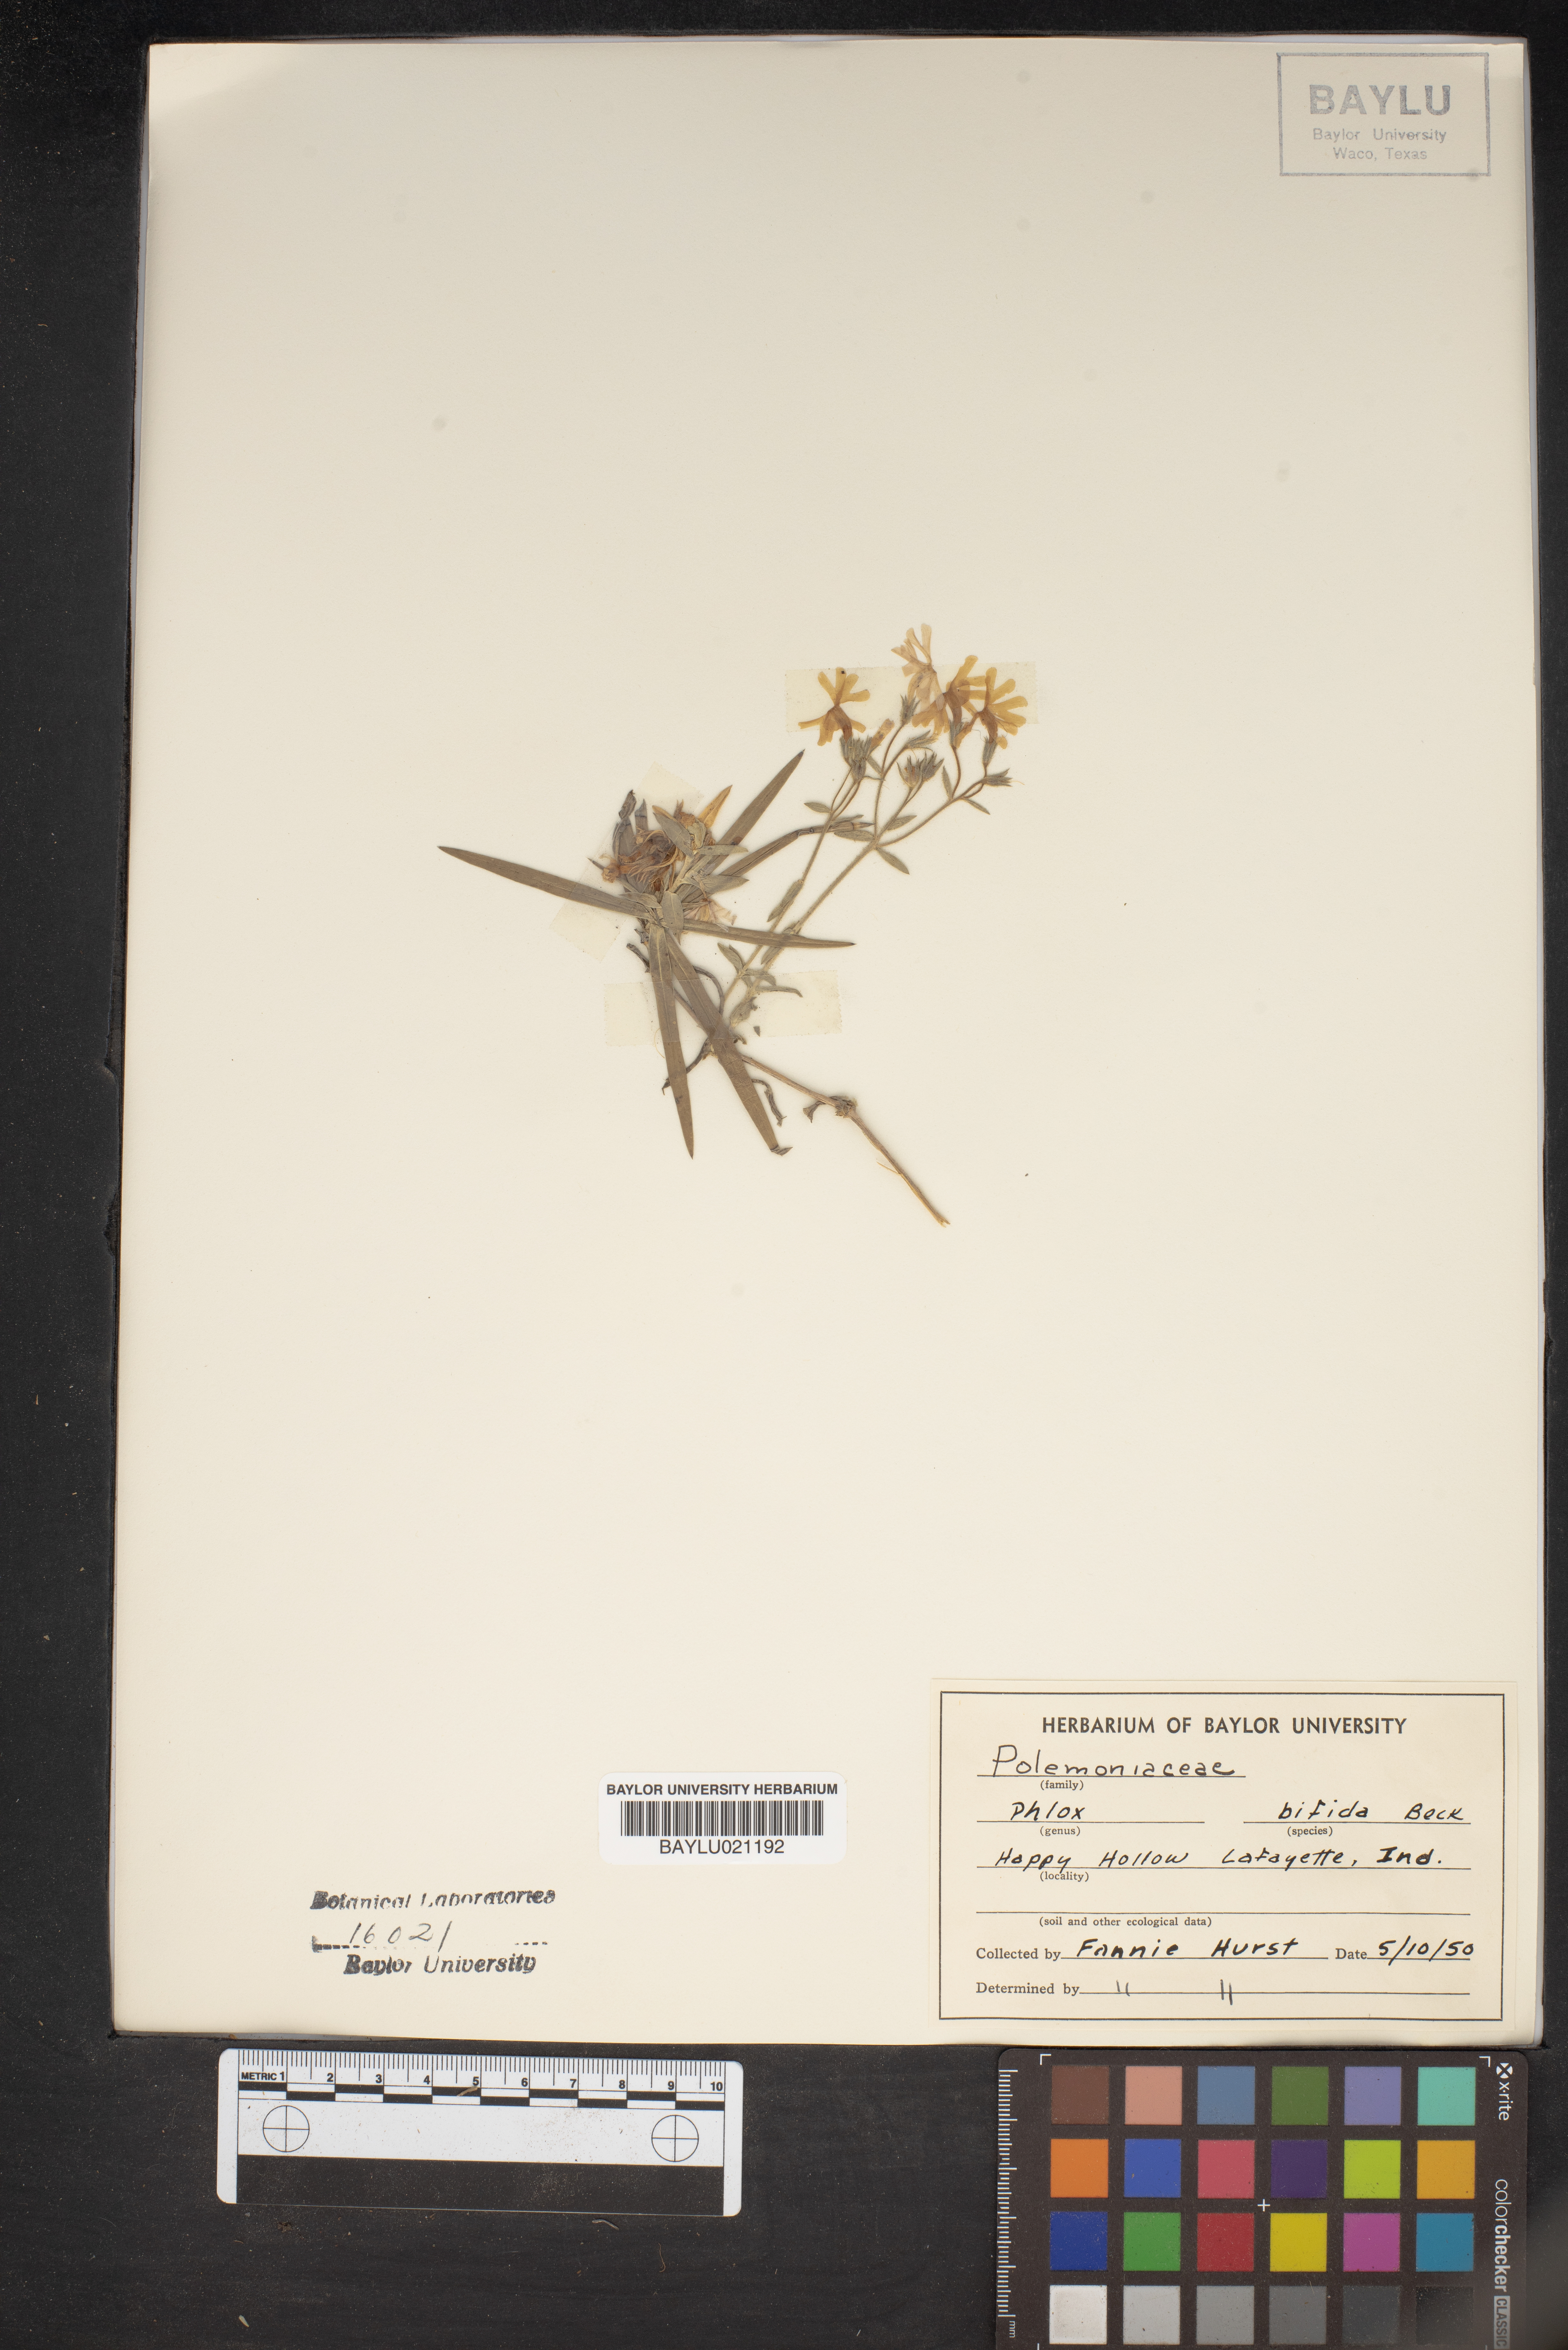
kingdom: Plantae
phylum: Tracheophyta
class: Magnoliopsida
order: Ericales
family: Polemoniaceae
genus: Phlox
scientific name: Phlox bifida
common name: Sand phlox
